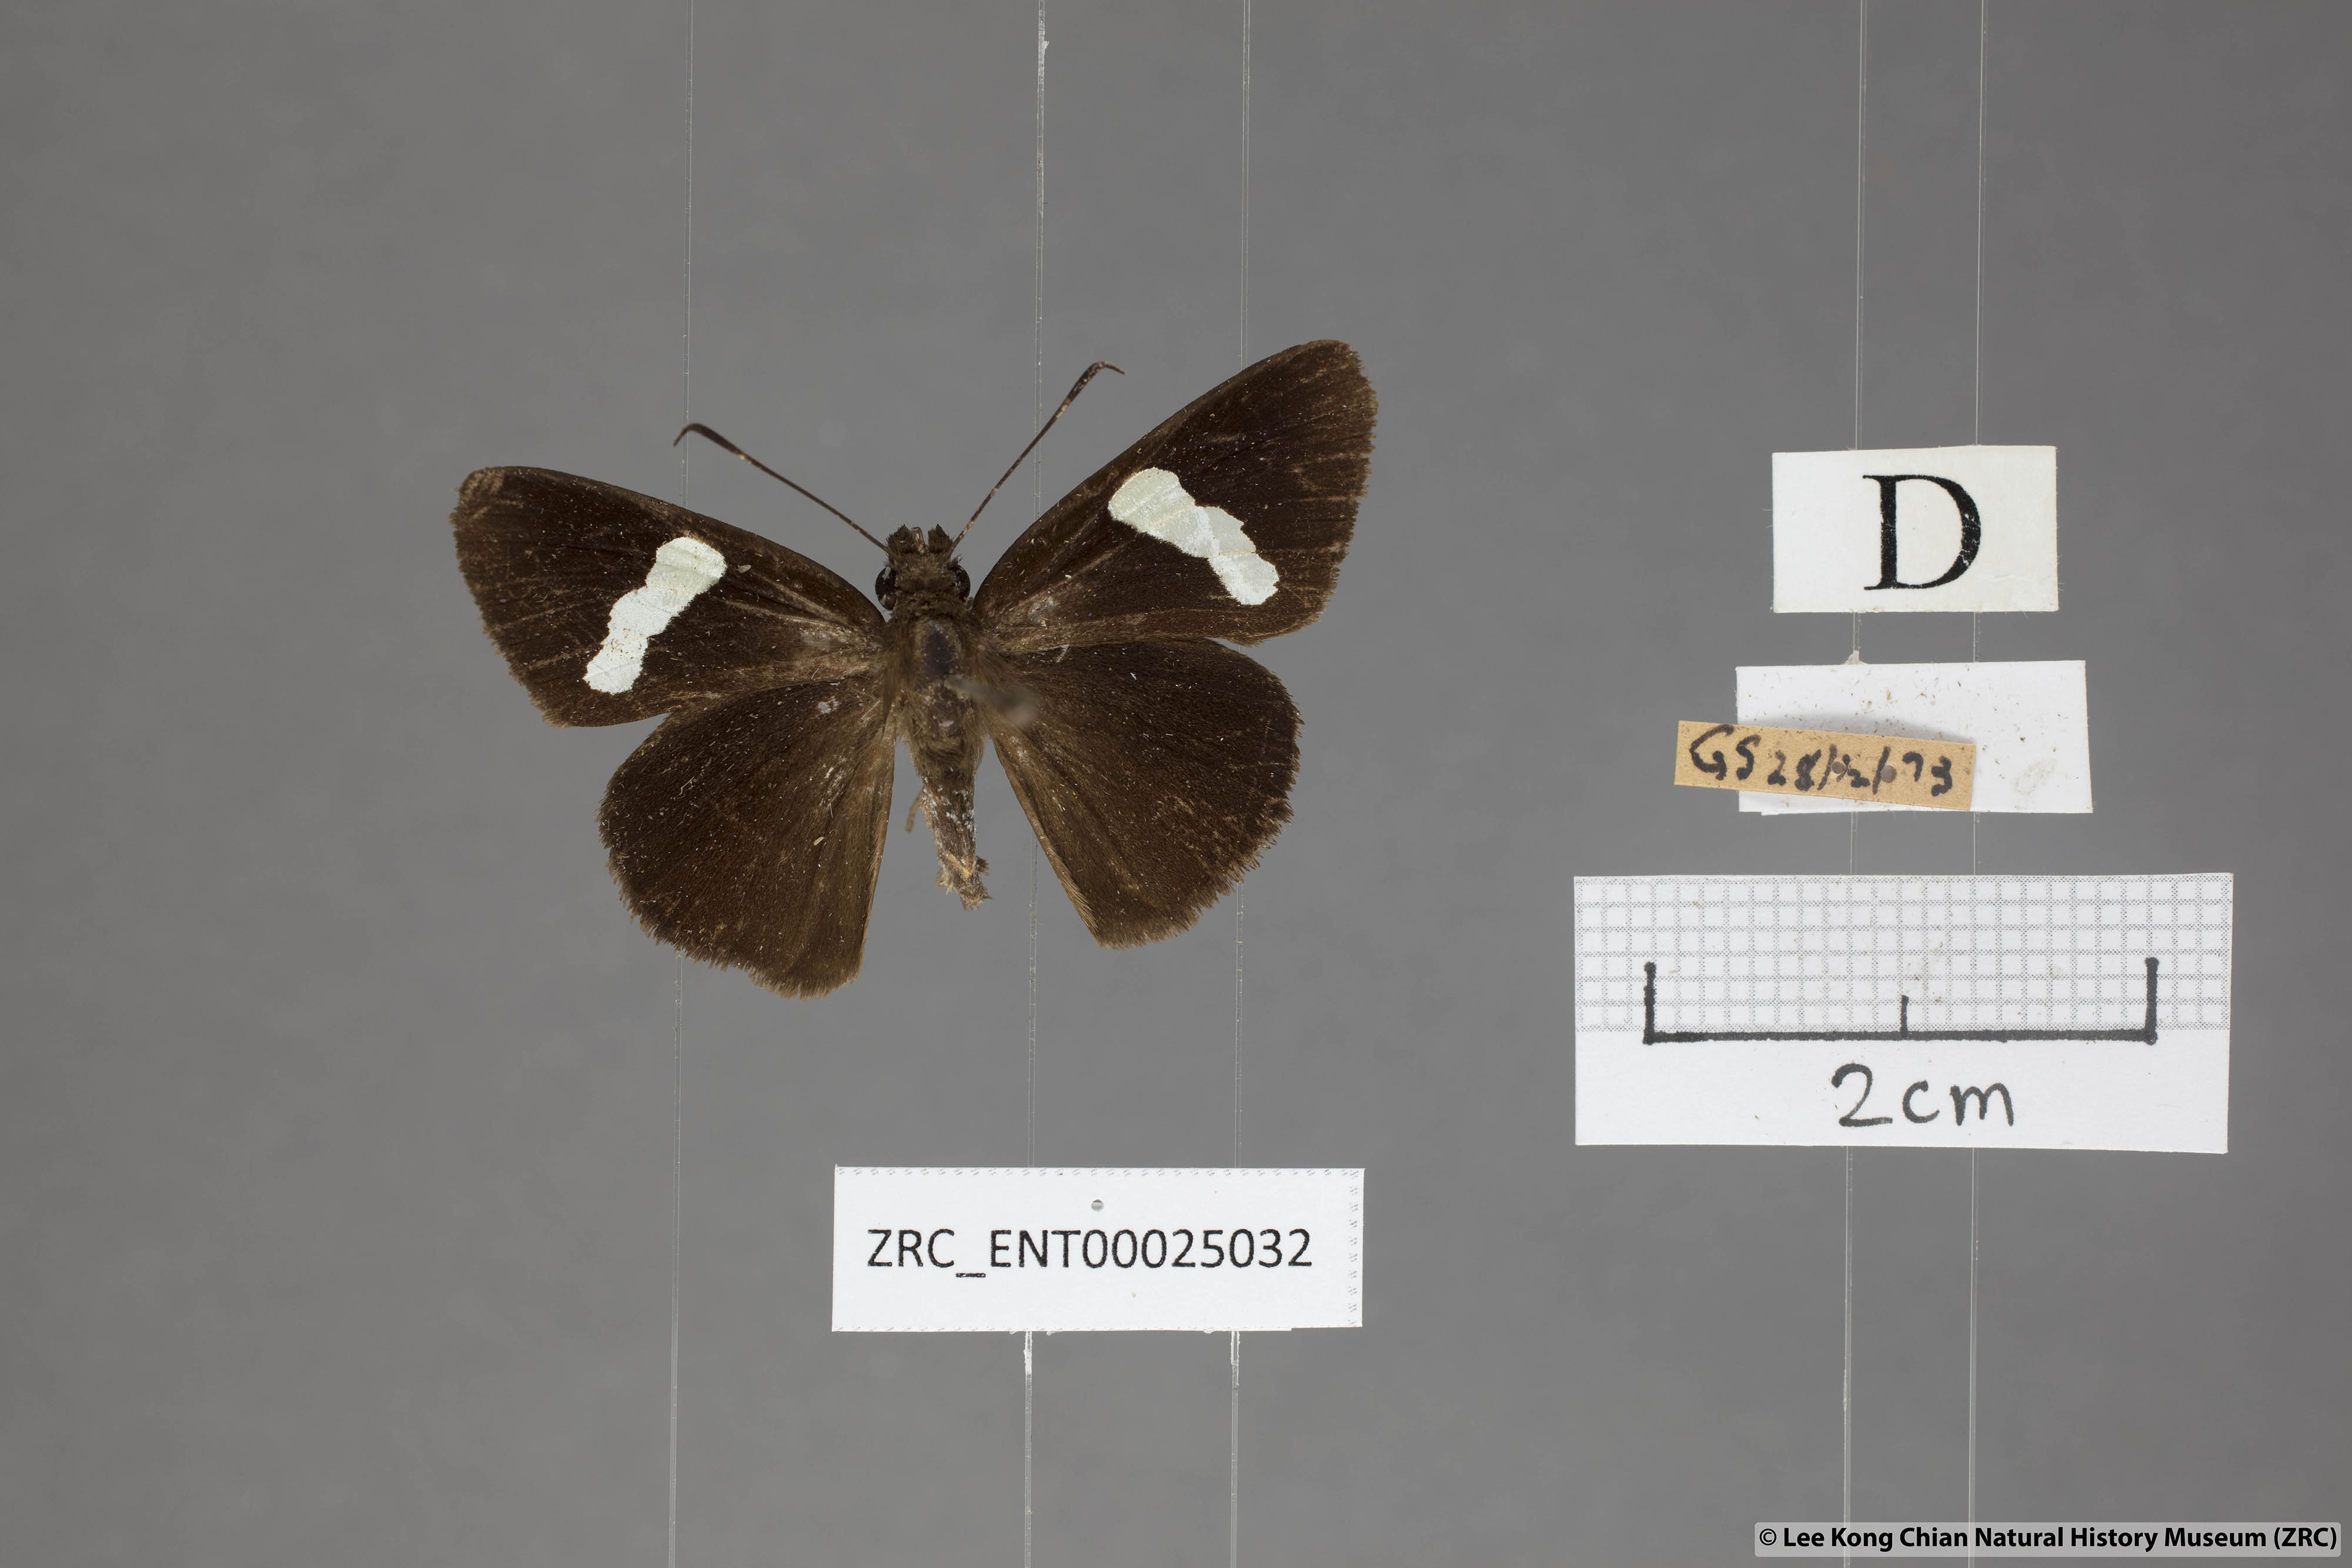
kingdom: Animalia
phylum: Arthropoda
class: Insecta
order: Lepidoptera
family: Hesperiidae
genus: Notocrypta
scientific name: Notocrypta paralysos
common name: Common banded demon
